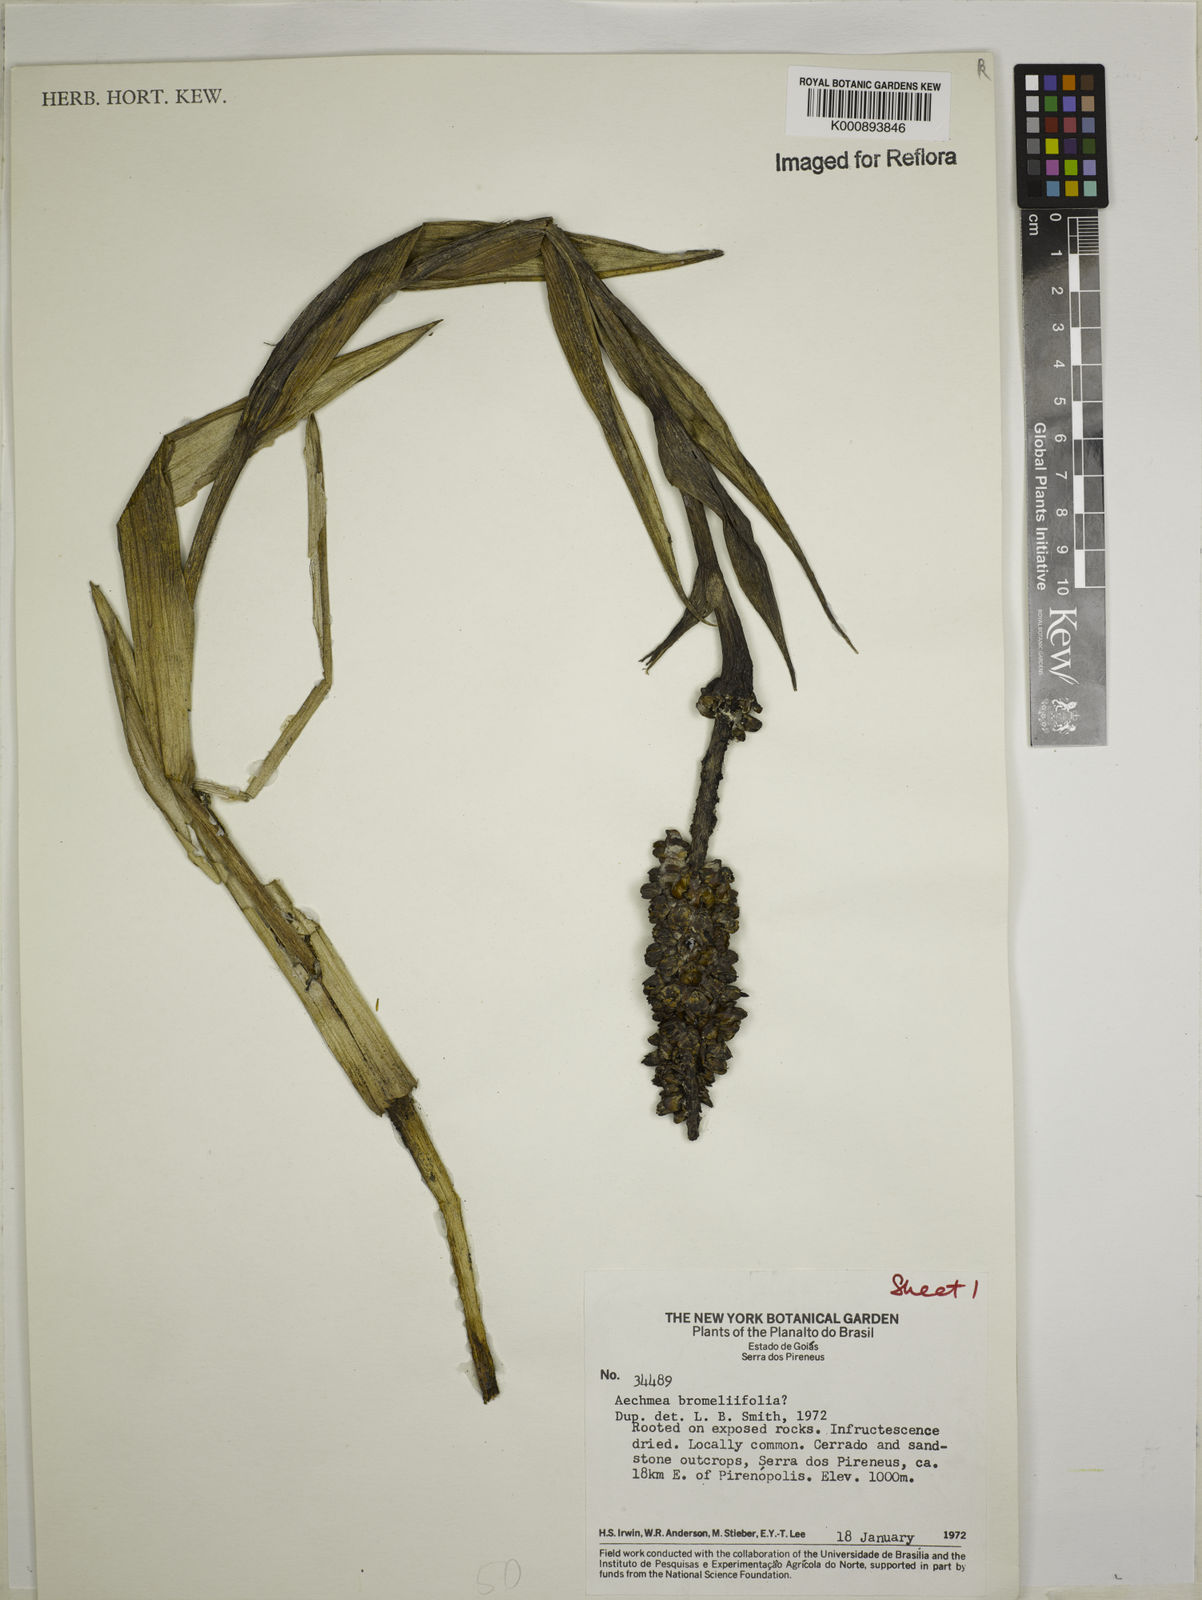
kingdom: Plantae
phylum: Tracheophyta
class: Liliopsida
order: Poales
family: Bromeliaceae
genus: Aechmea
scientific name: Aechmea
